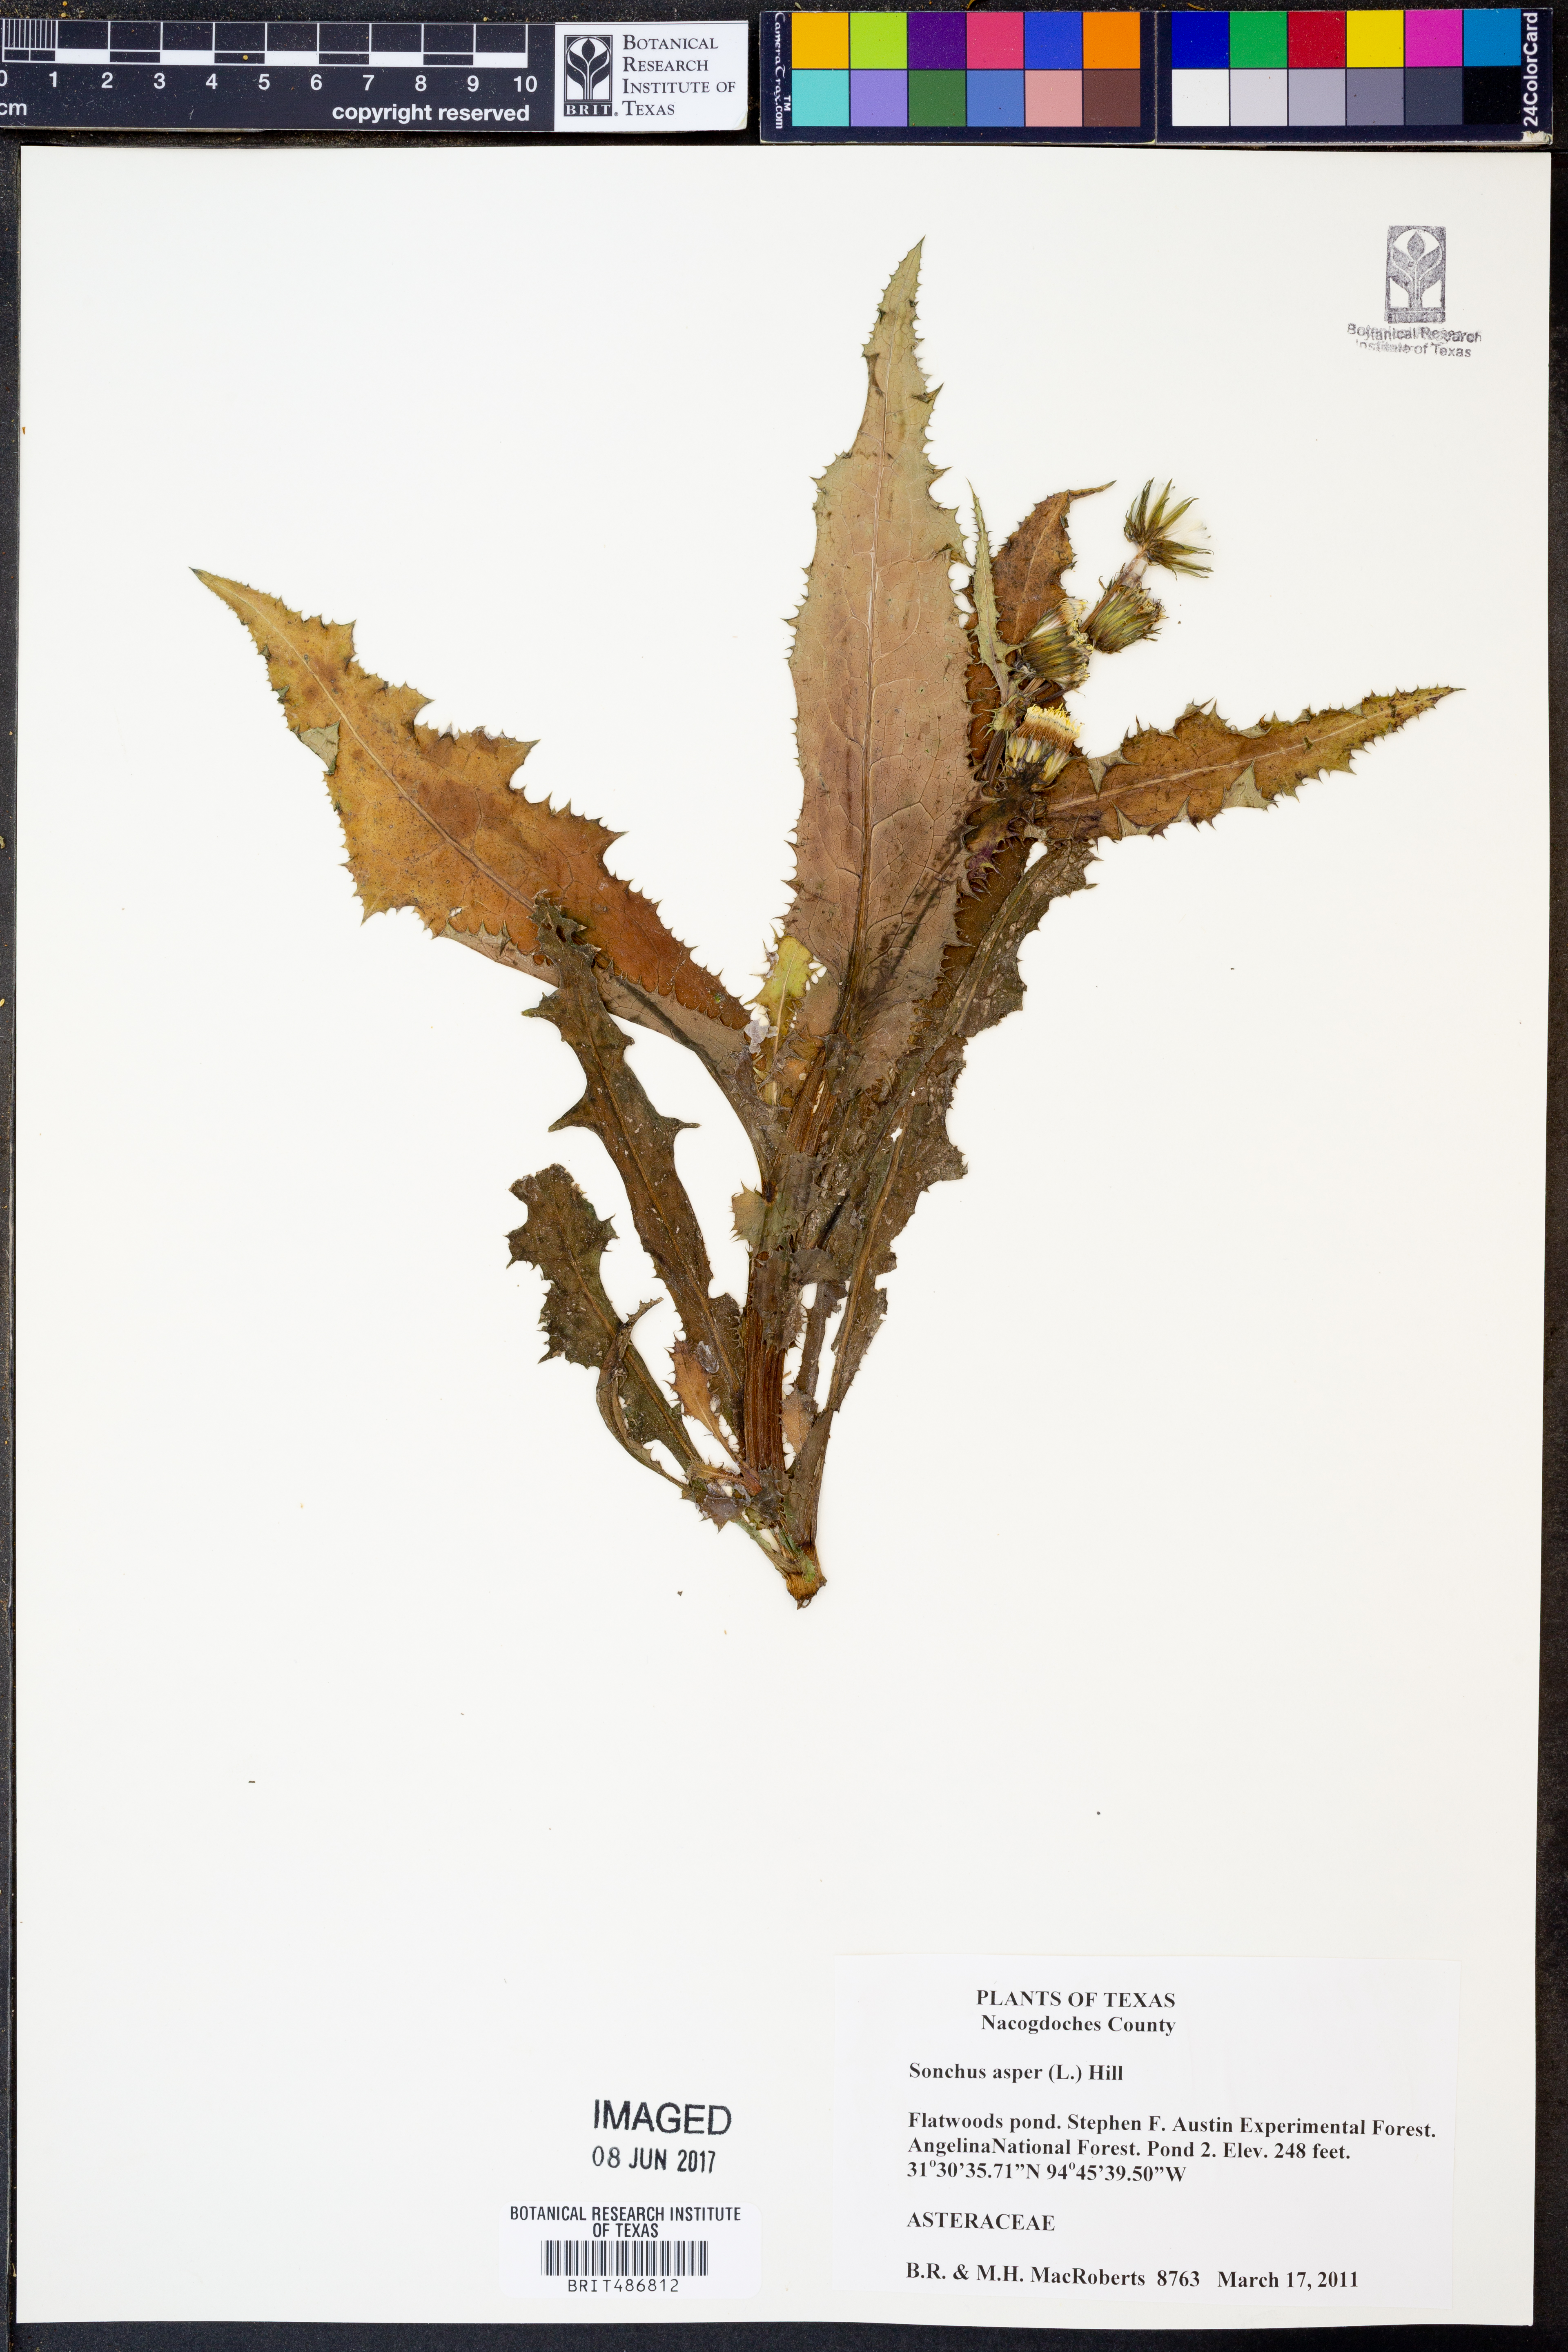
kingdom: Plantae
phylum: Tracheophyta
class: Magnoliopsida
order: Asterales
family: Asteraceae
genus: Sonchus
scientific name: Sonchus asper
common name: Prickly sow-thistle
